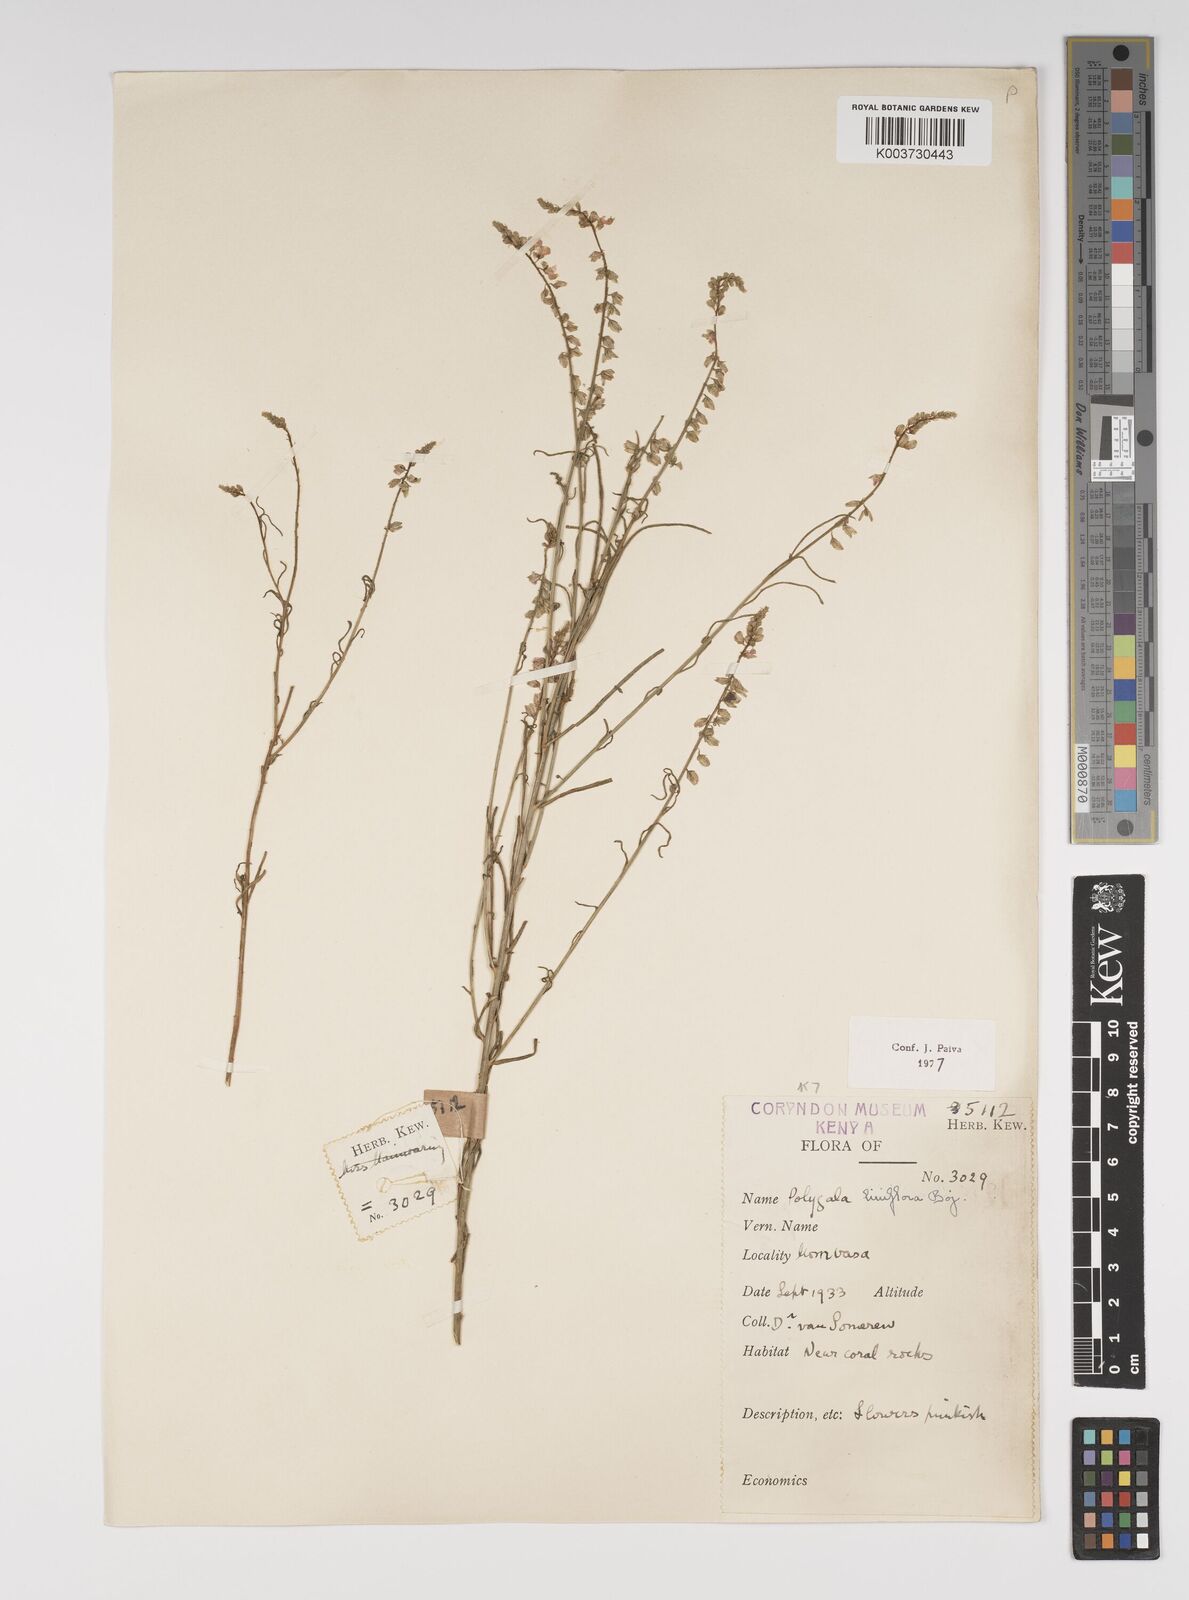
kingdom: Plantae
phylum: Tracheophyta
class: Magnoliopsida
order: Fabales
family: Polygalaceae
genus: Polygala
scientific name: Polygala conosperma
